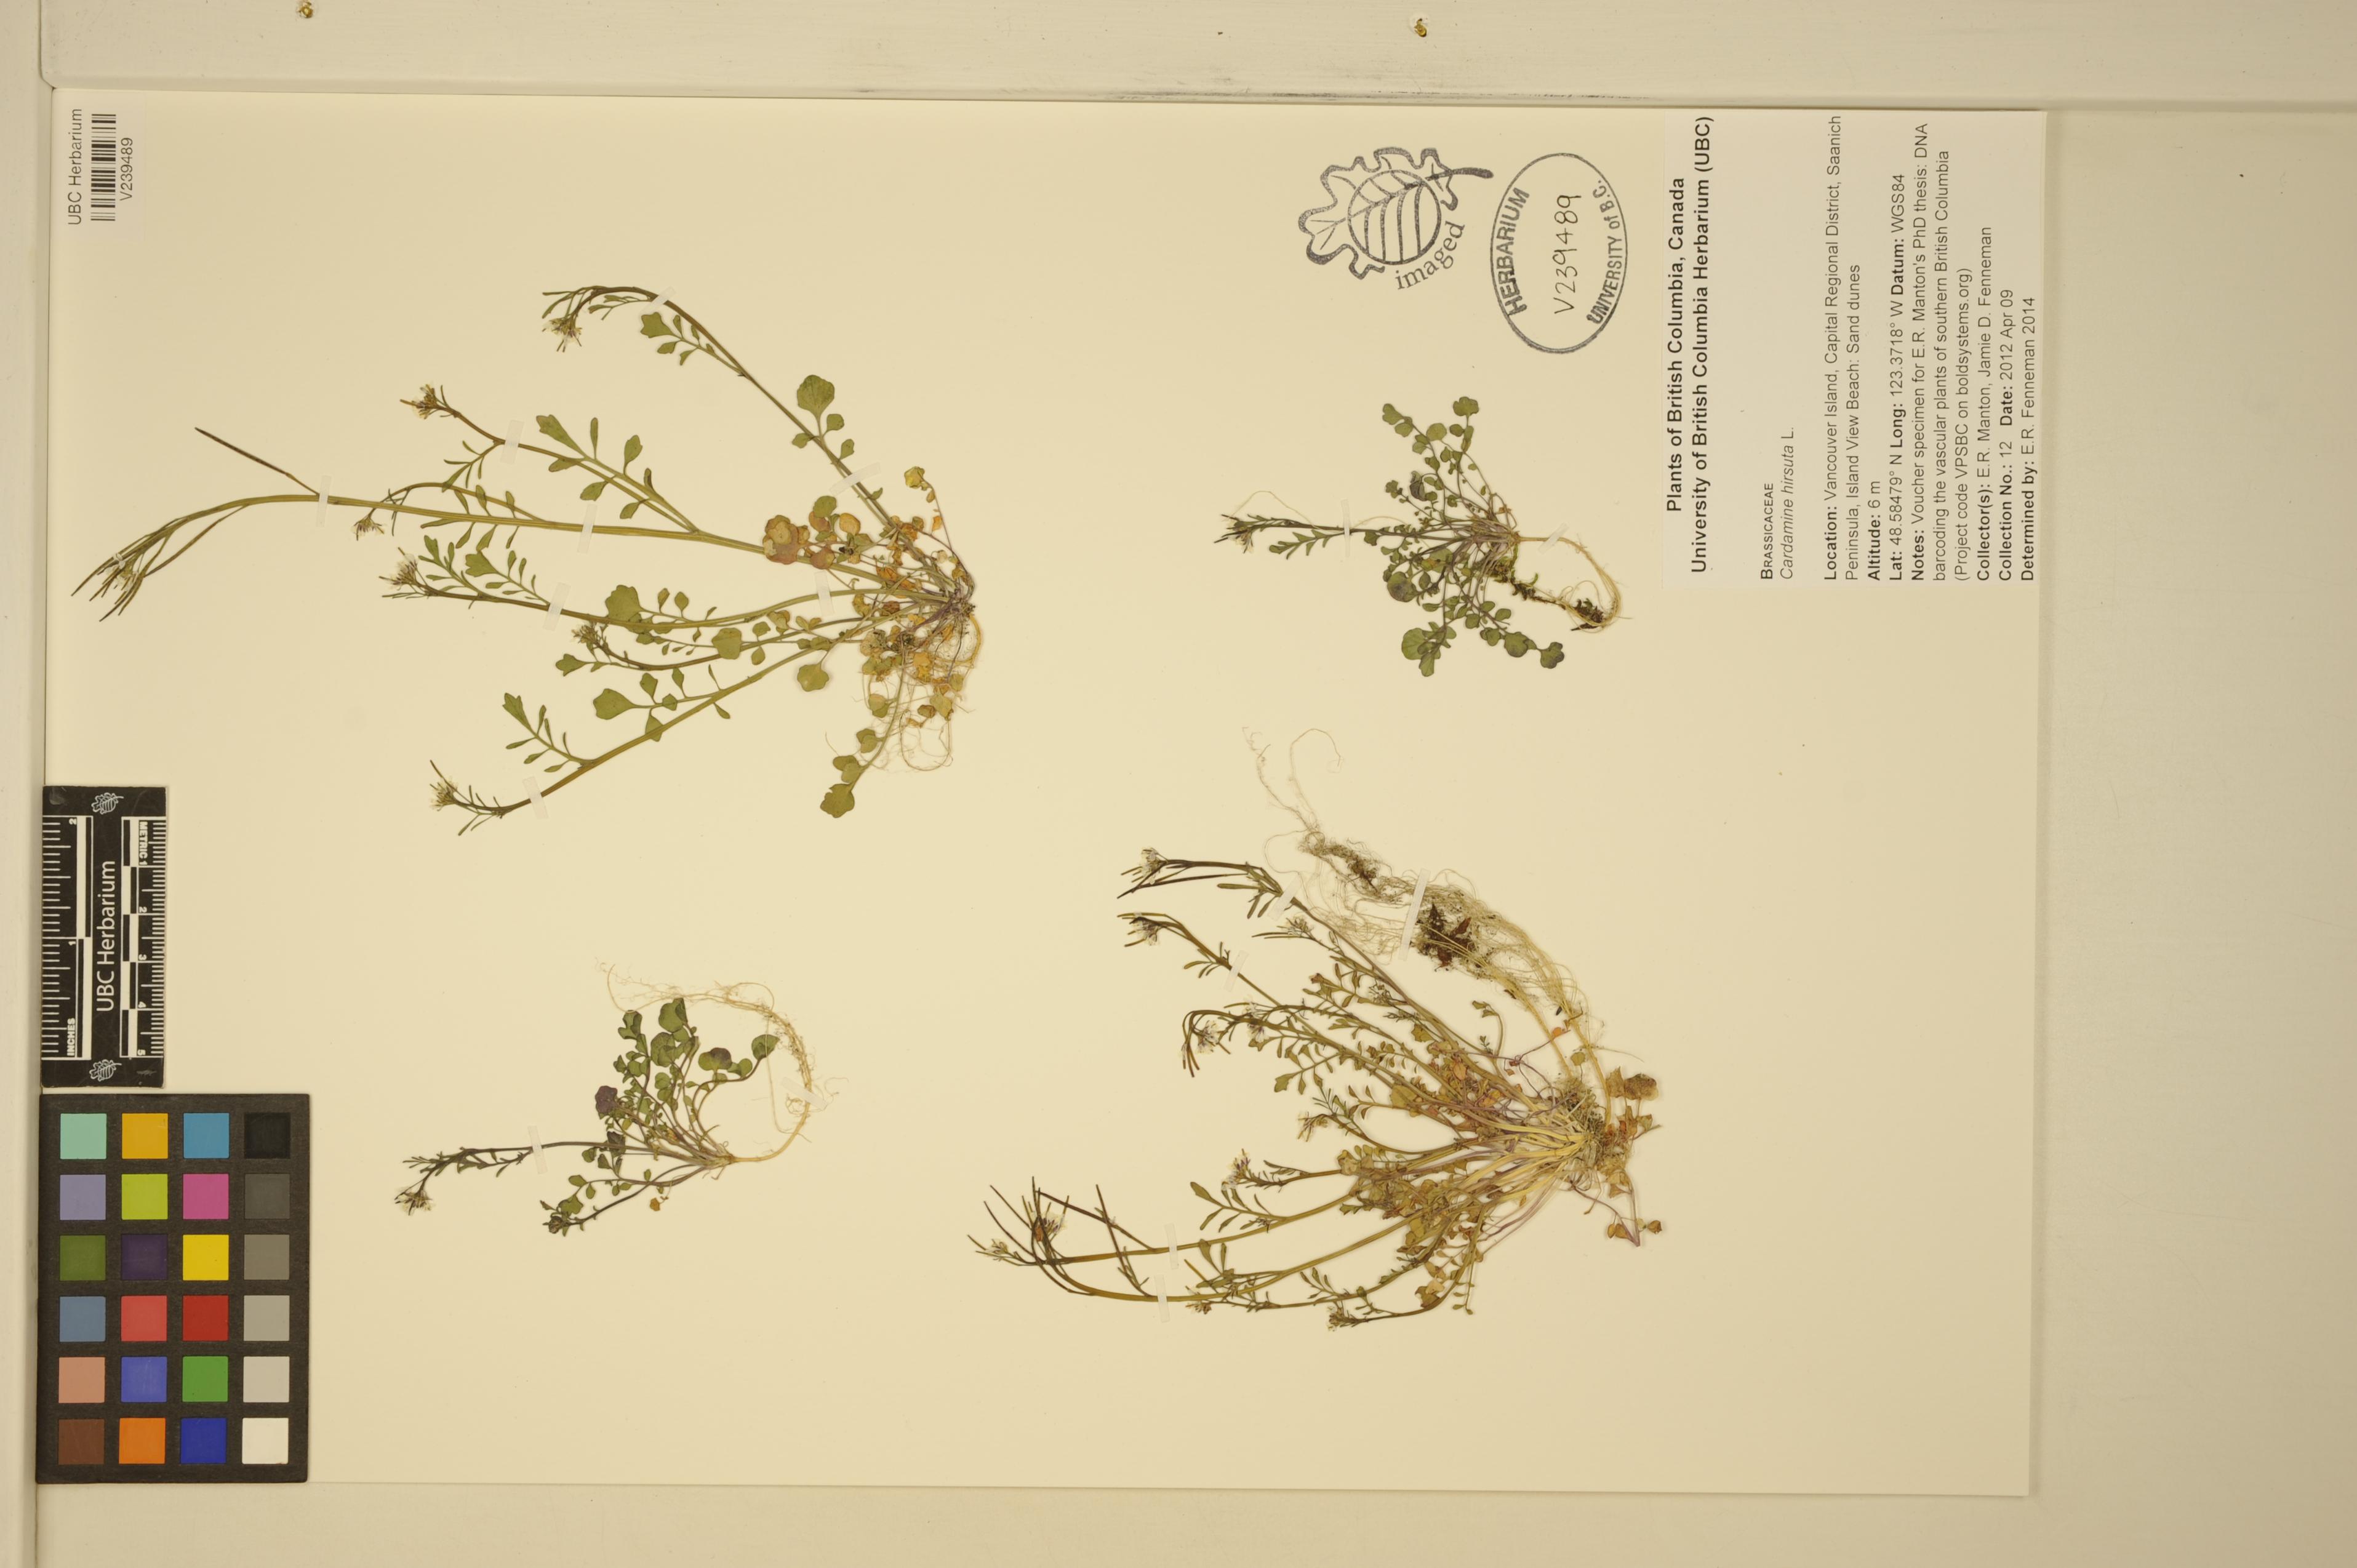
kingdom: Plantae
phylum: Tracheophyta
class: Magnoliopsida
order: Brassicales
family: Brassicaceae
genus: Cardamine
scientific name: Cardamine hirsuta
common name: Hairy bittercress
